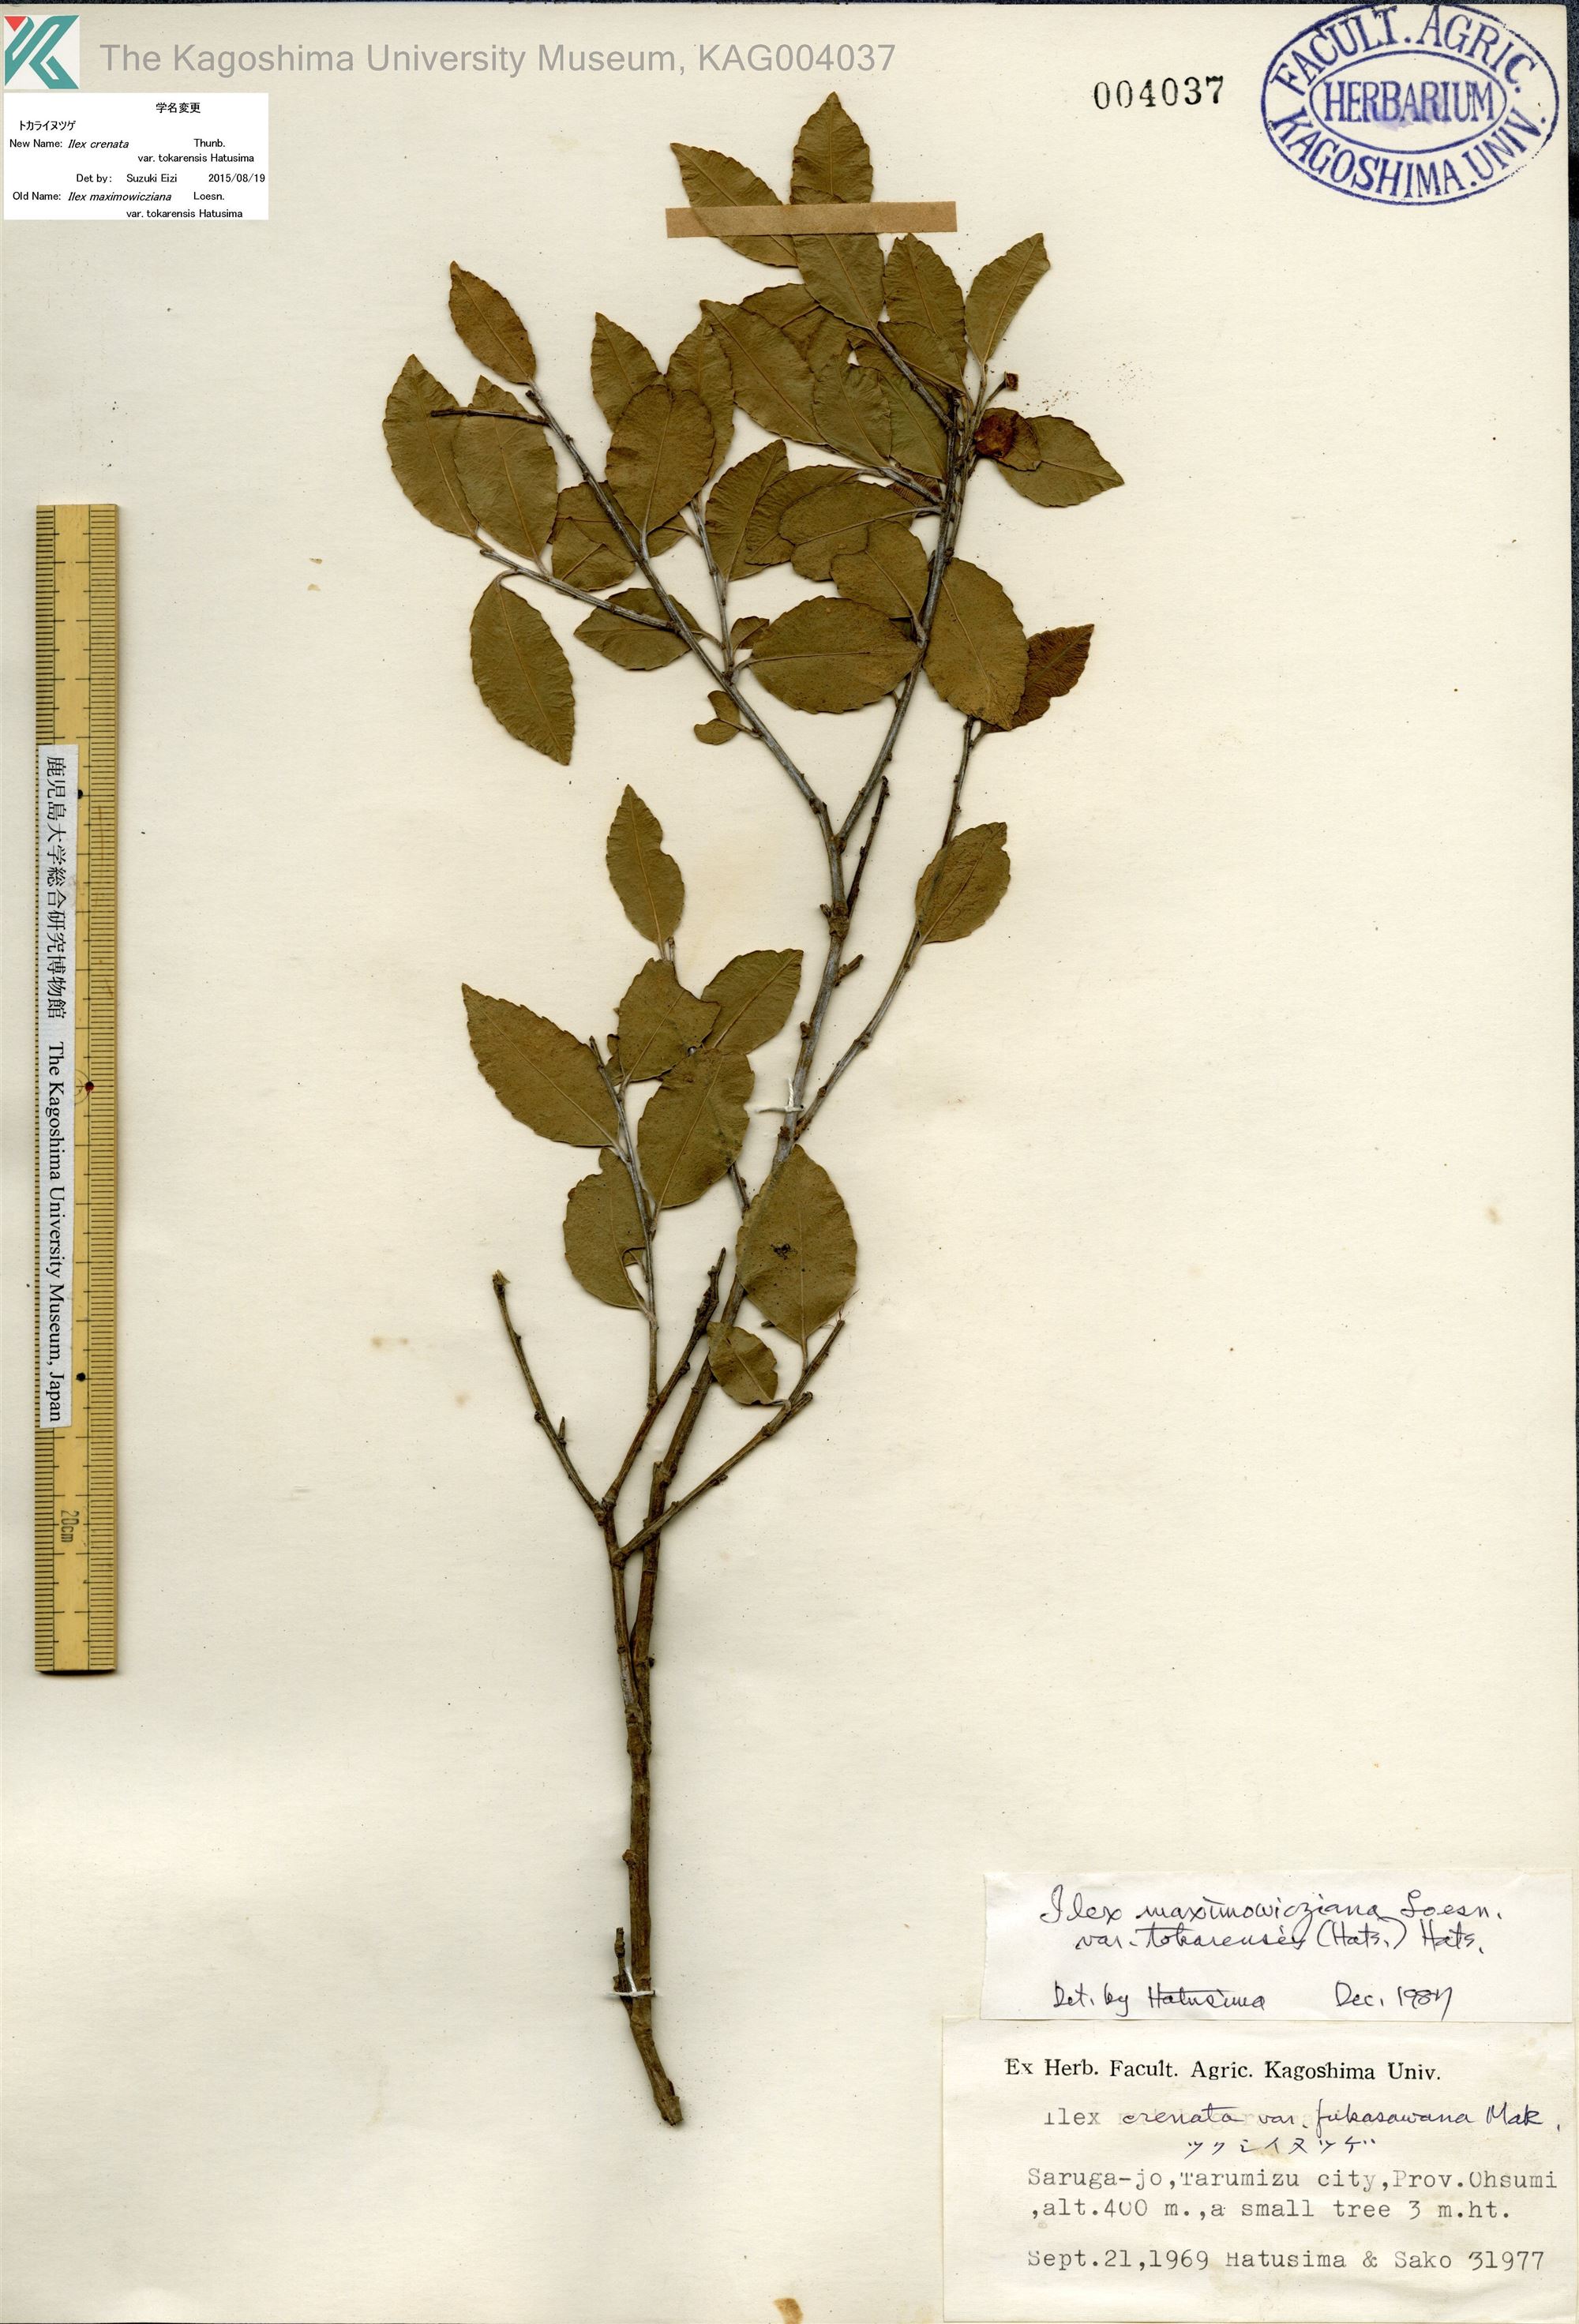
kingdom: Plantae
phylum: Tracheophyta
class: Magnoliopsida
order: Aquifoliales
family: Aquifoliaceae
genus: Ilex
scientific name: Ilex crenata
